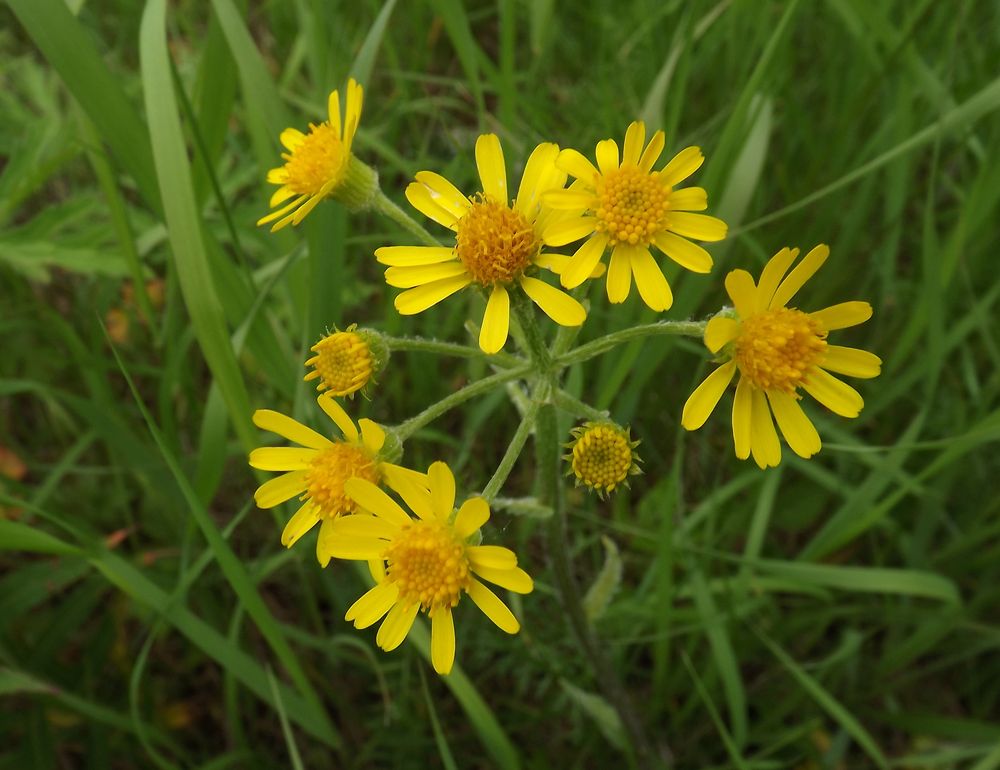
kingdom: Plantae
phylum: Tracheophyta
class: Magnoliopsida
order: Asterales
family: Asteraceae
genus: Tephroseris
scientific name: Tephroseris integrifolia
